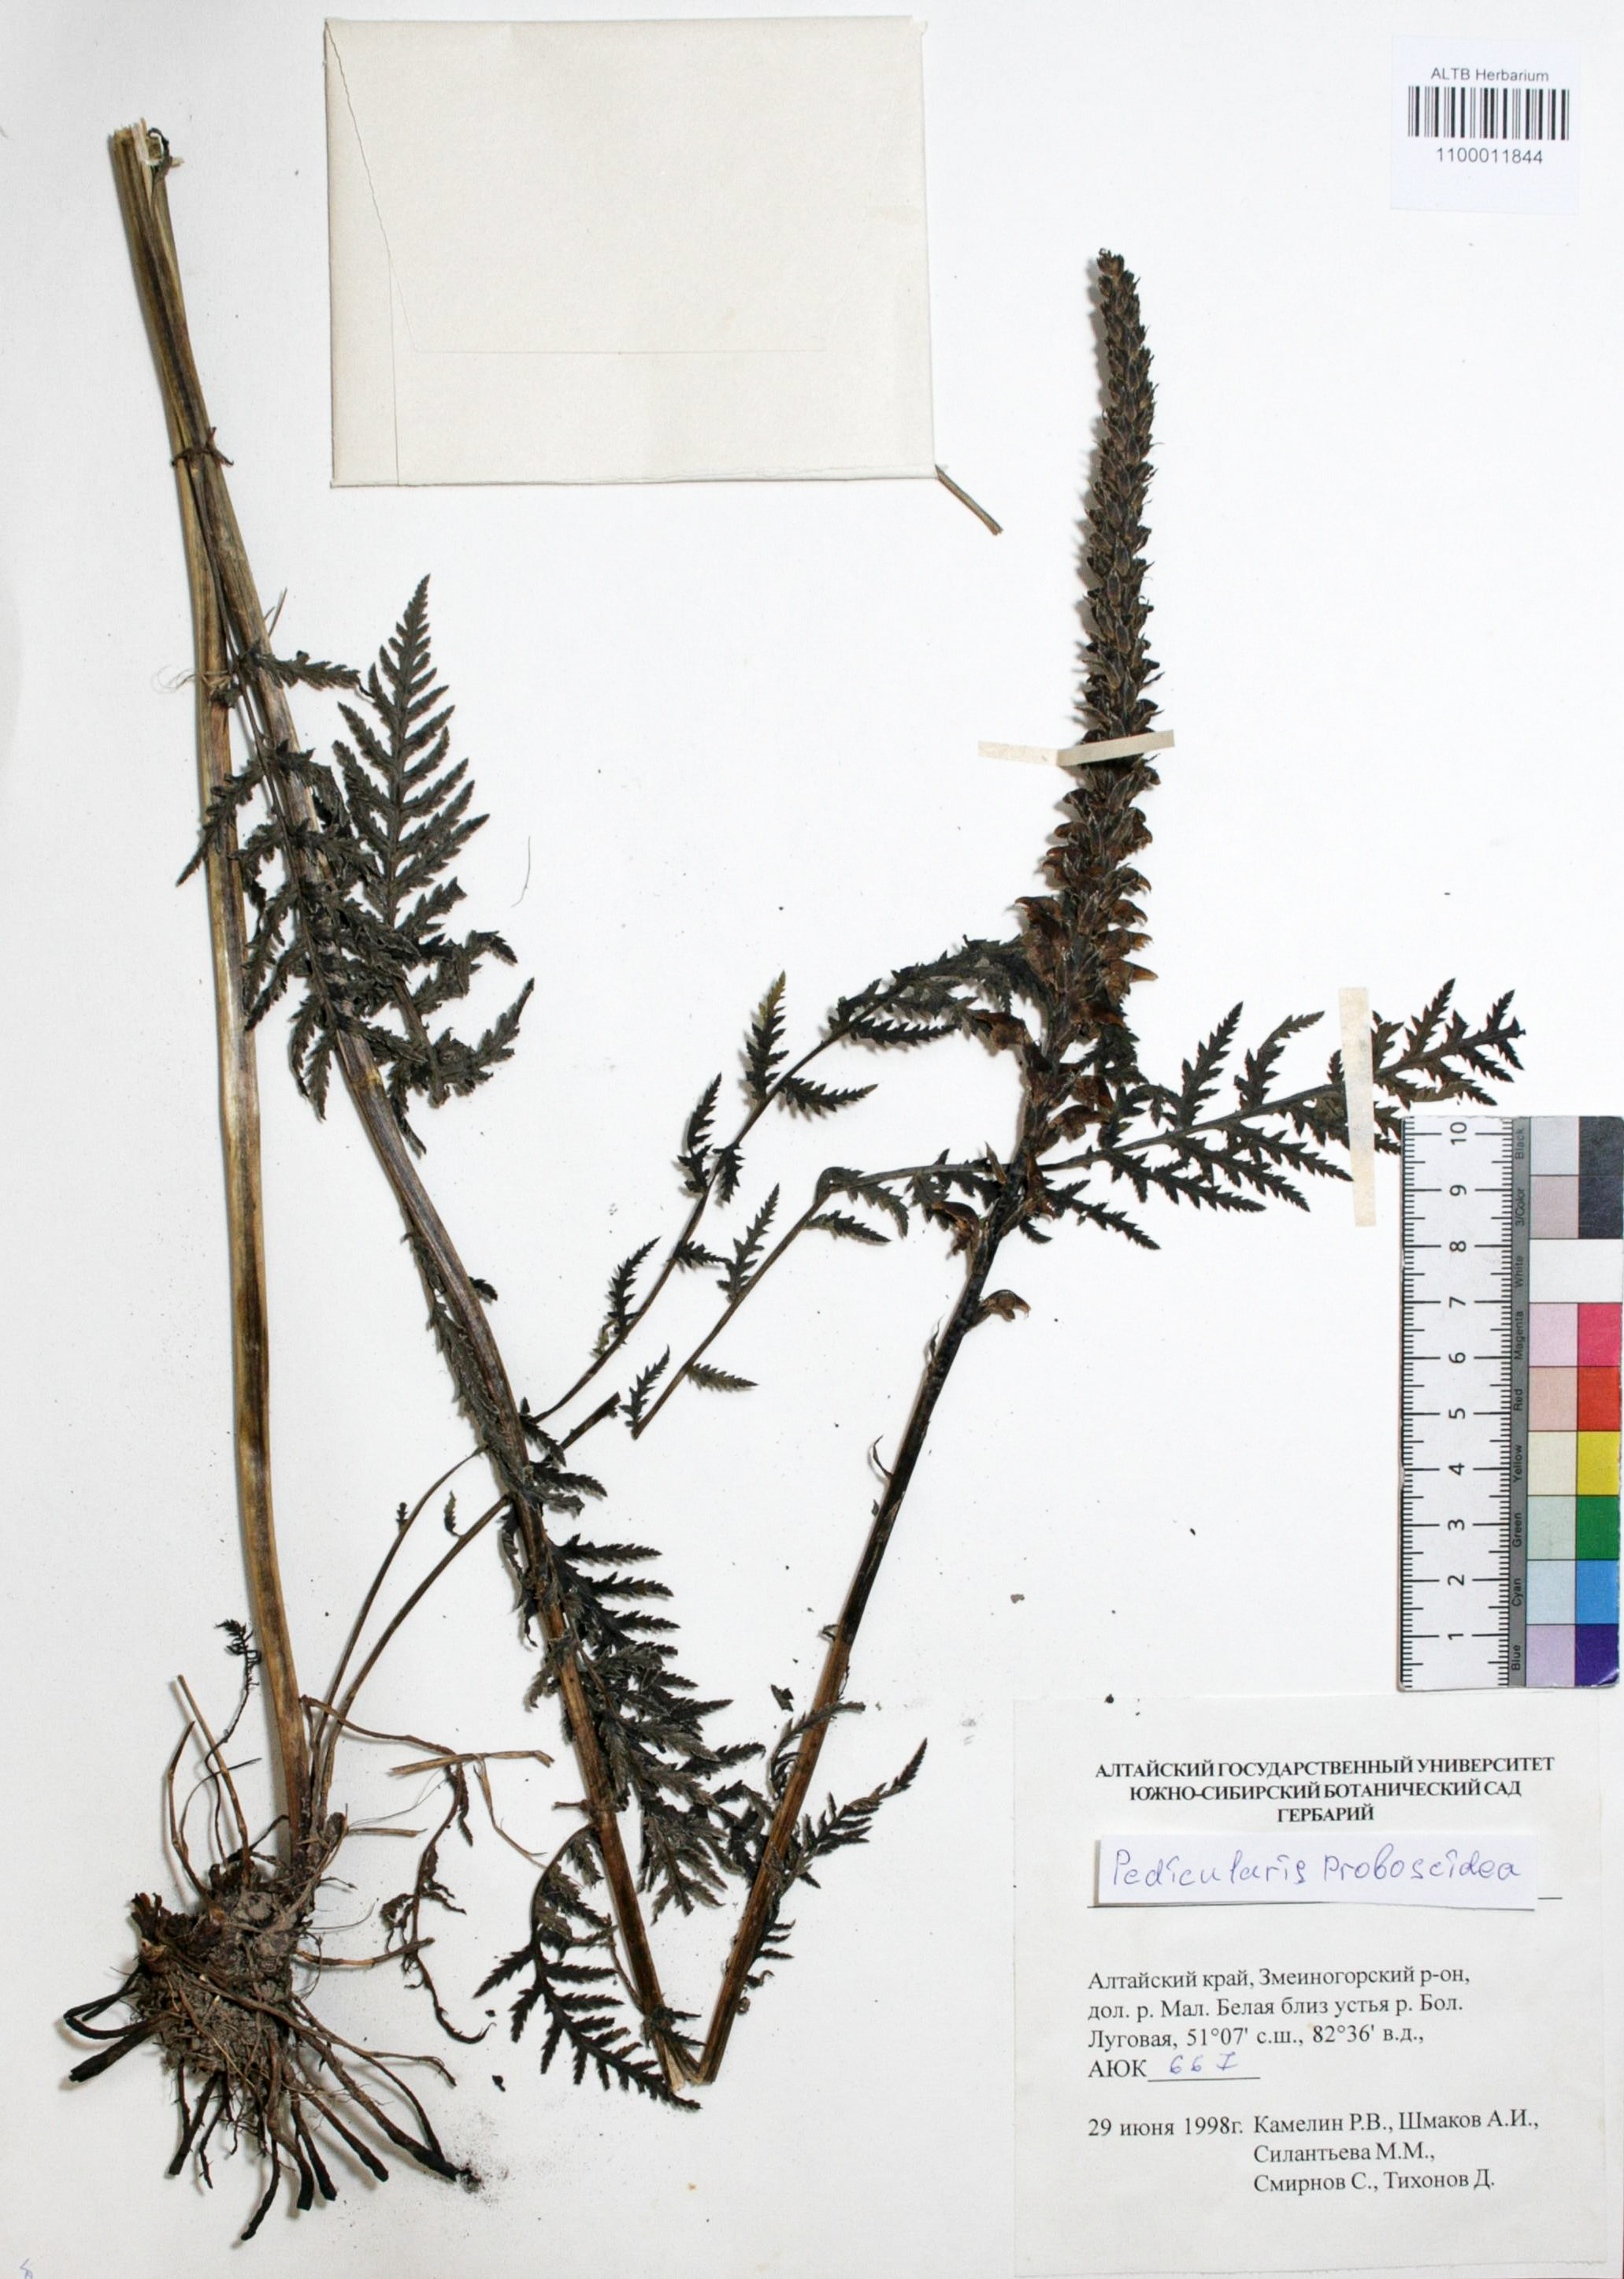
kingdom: Plantae
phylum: Tracheophyta
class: Magnoliopsida
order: Lamiales
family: Orobanchaceae
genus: Pedicularis
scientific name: Pedicularis proboscidea
